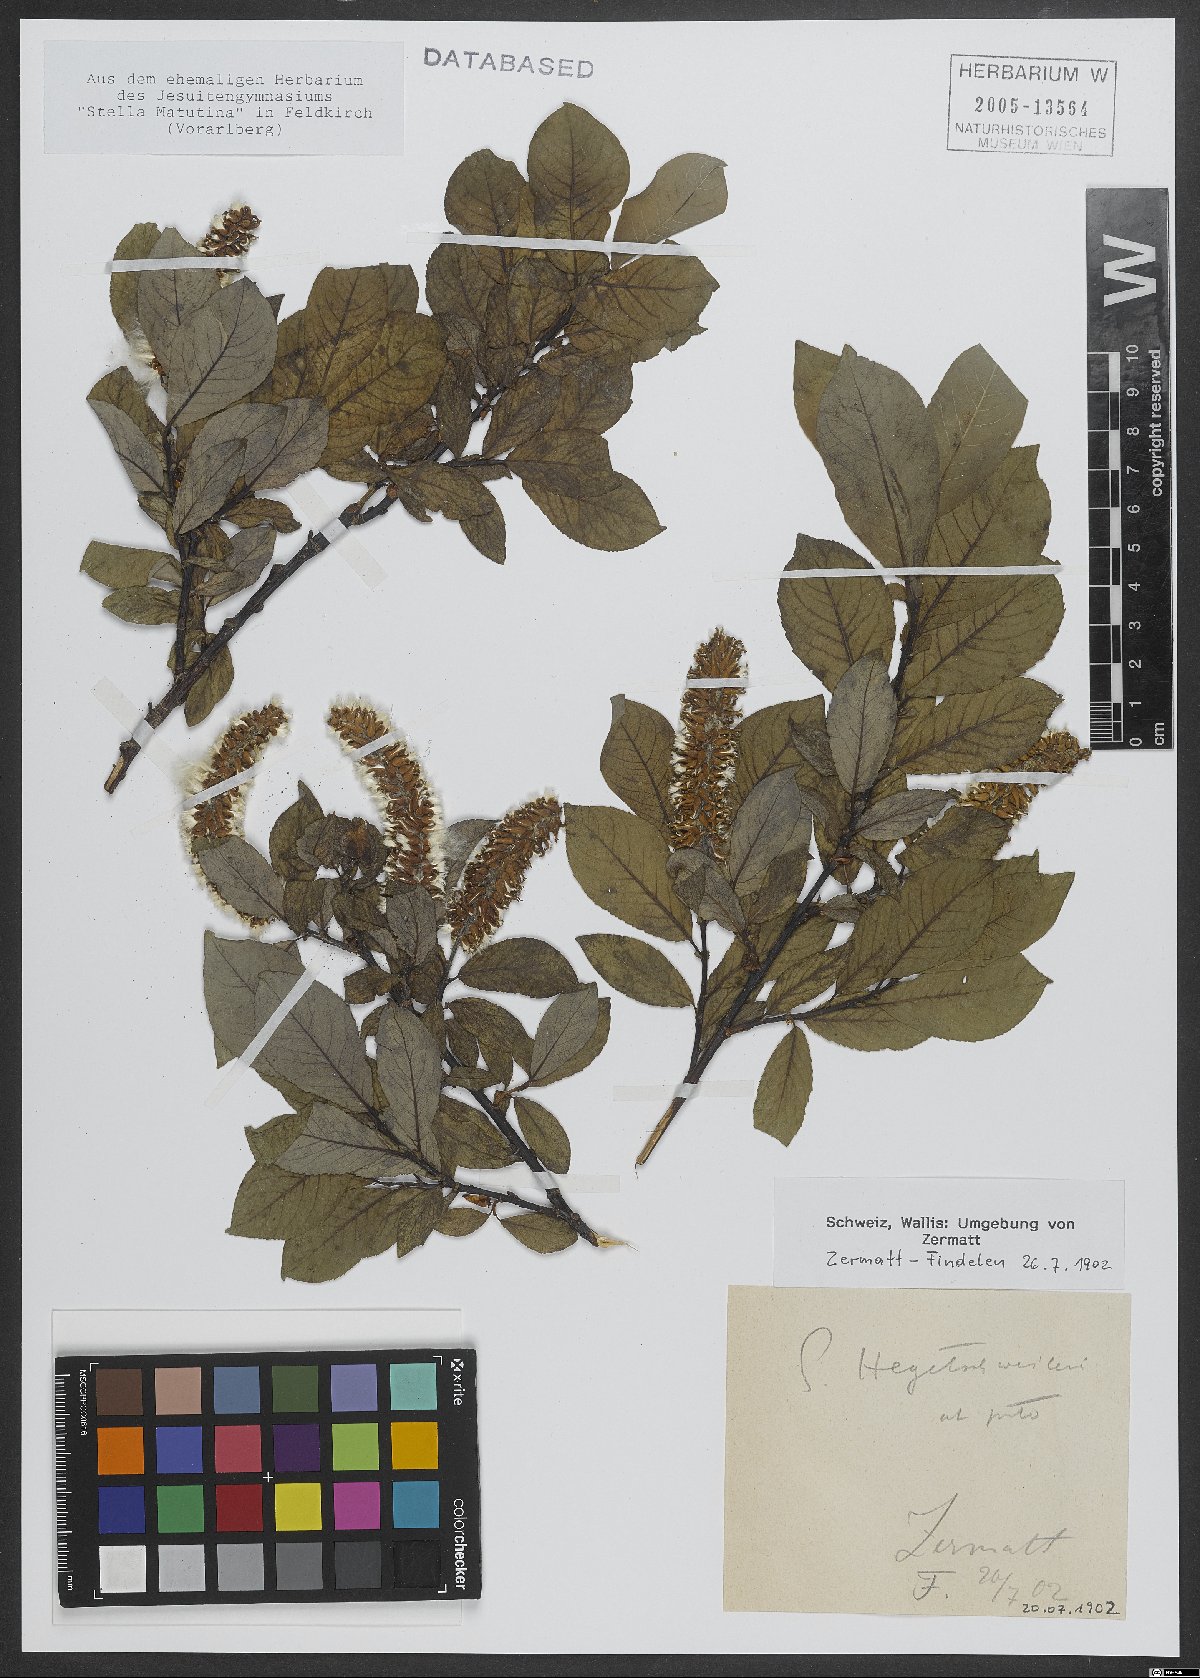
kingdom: Plantae
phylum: Tracheophyta
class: Magnoliopsida
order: Malpighiales
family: Salicaceae
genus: Salix
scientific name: Salix hegetschweileri
